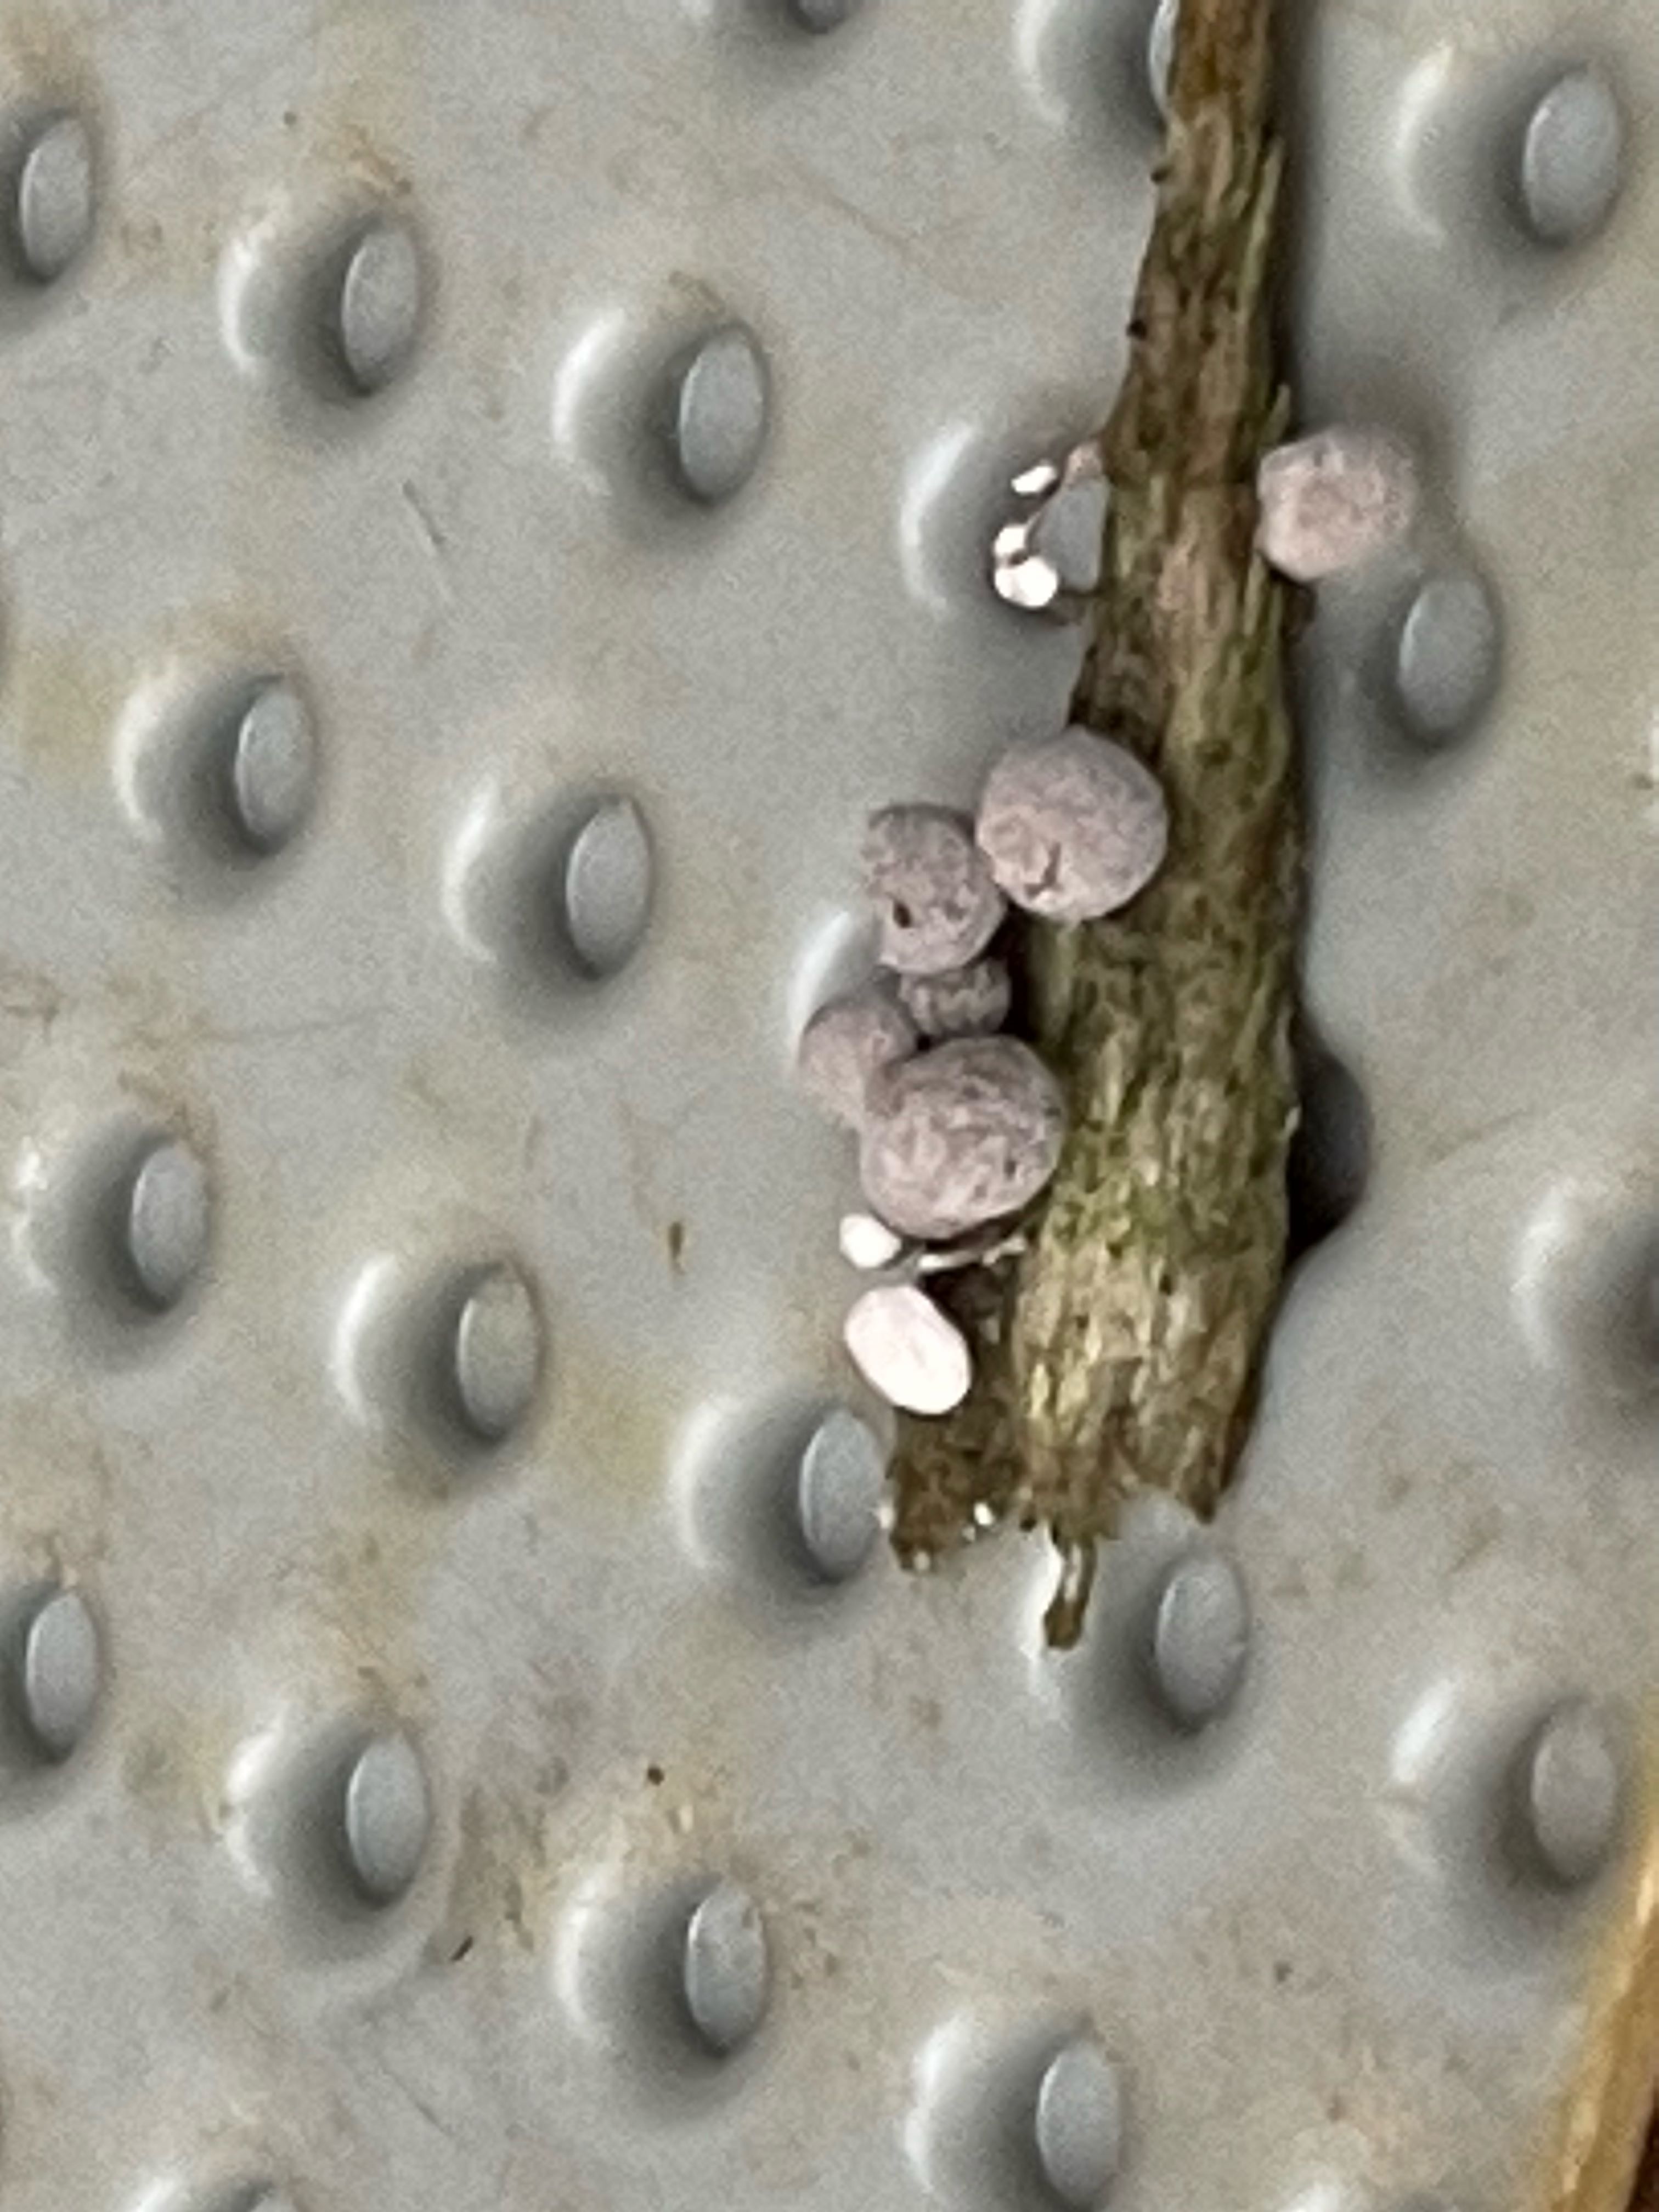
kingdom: Fungi
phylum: Basidiomycota
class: Atractiellomycetes
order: Atractiellales
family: Phleogenaceae
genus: Phleogena
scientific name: Phleogena faginea
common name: pudderkølle
